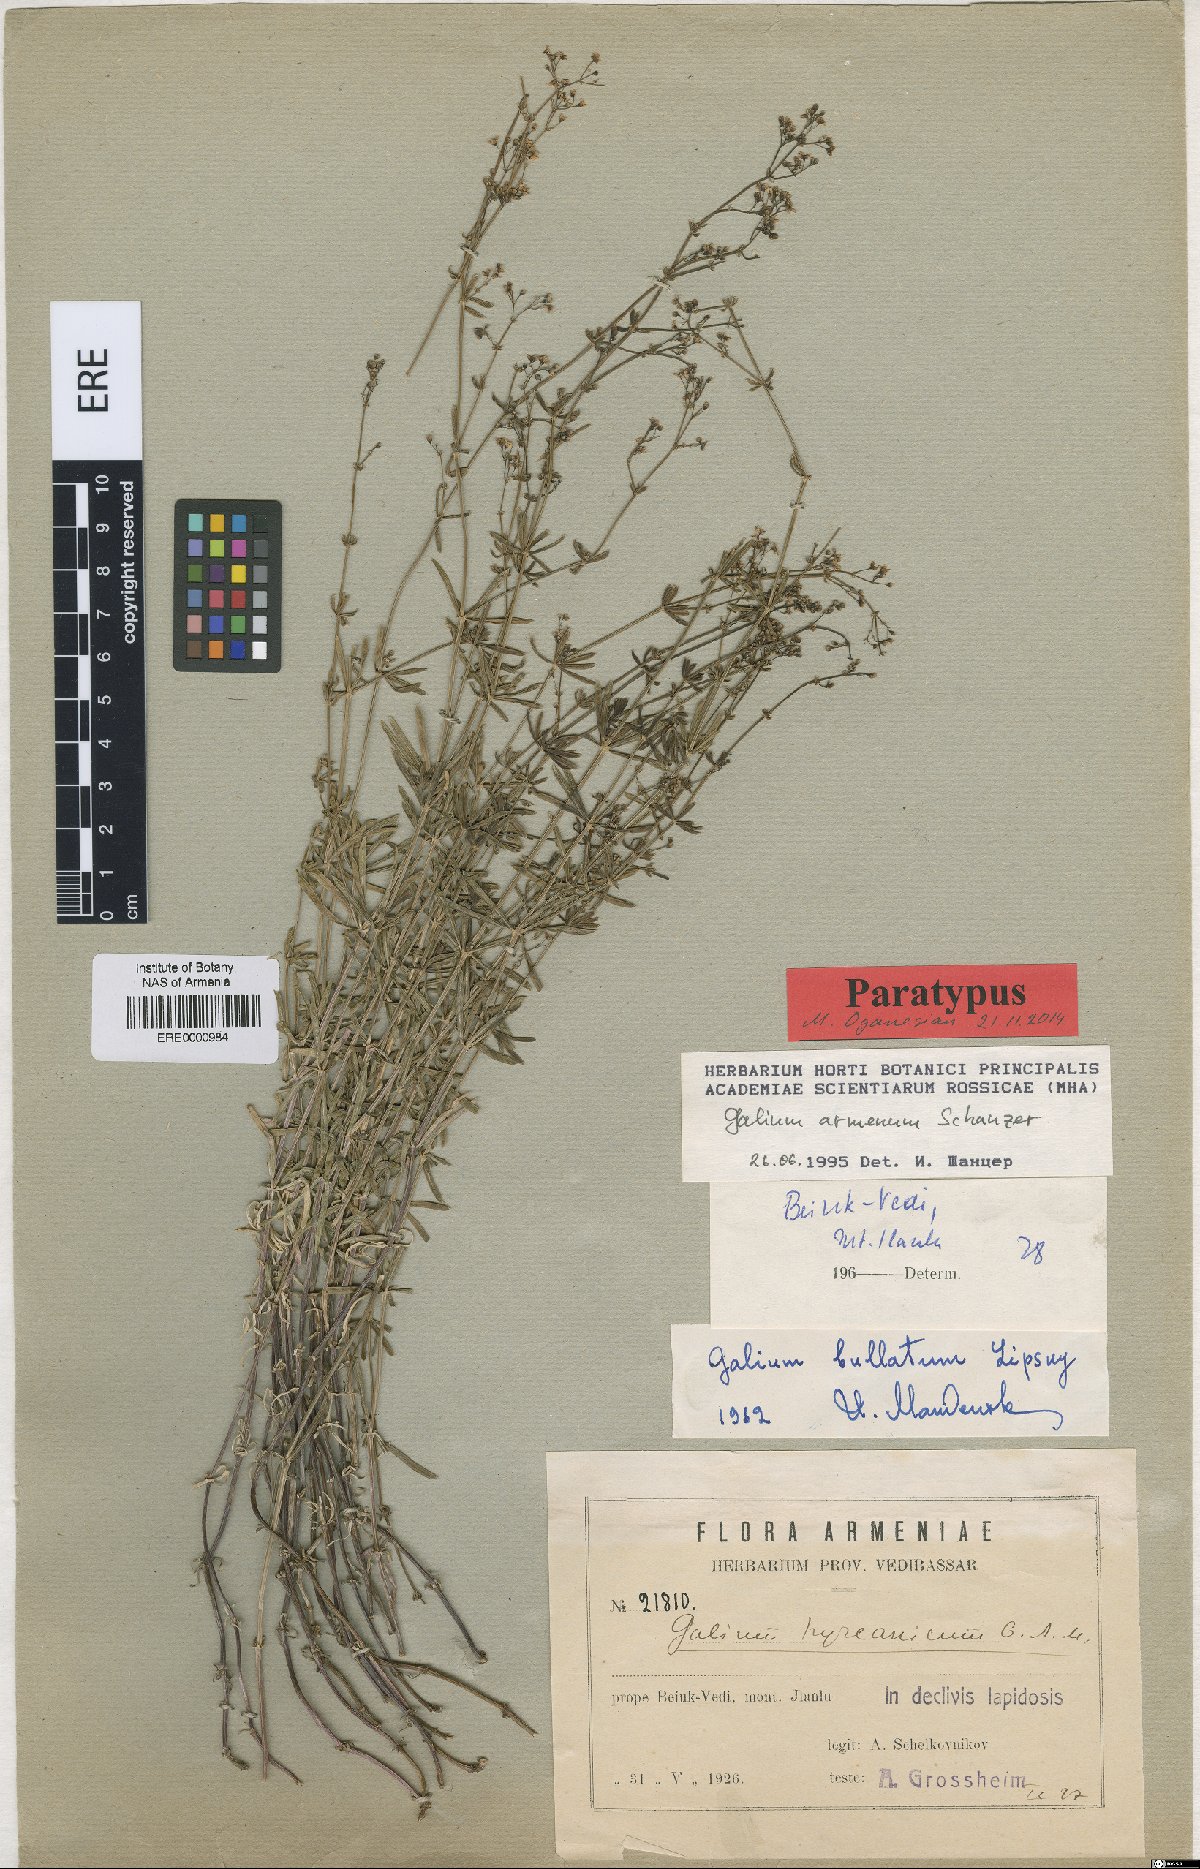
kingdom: Plantae
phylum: Tracheophyta
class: Magnoliopsida
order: Gentianales
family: Rubiaceae
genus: Galium
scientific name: Galium armenum
